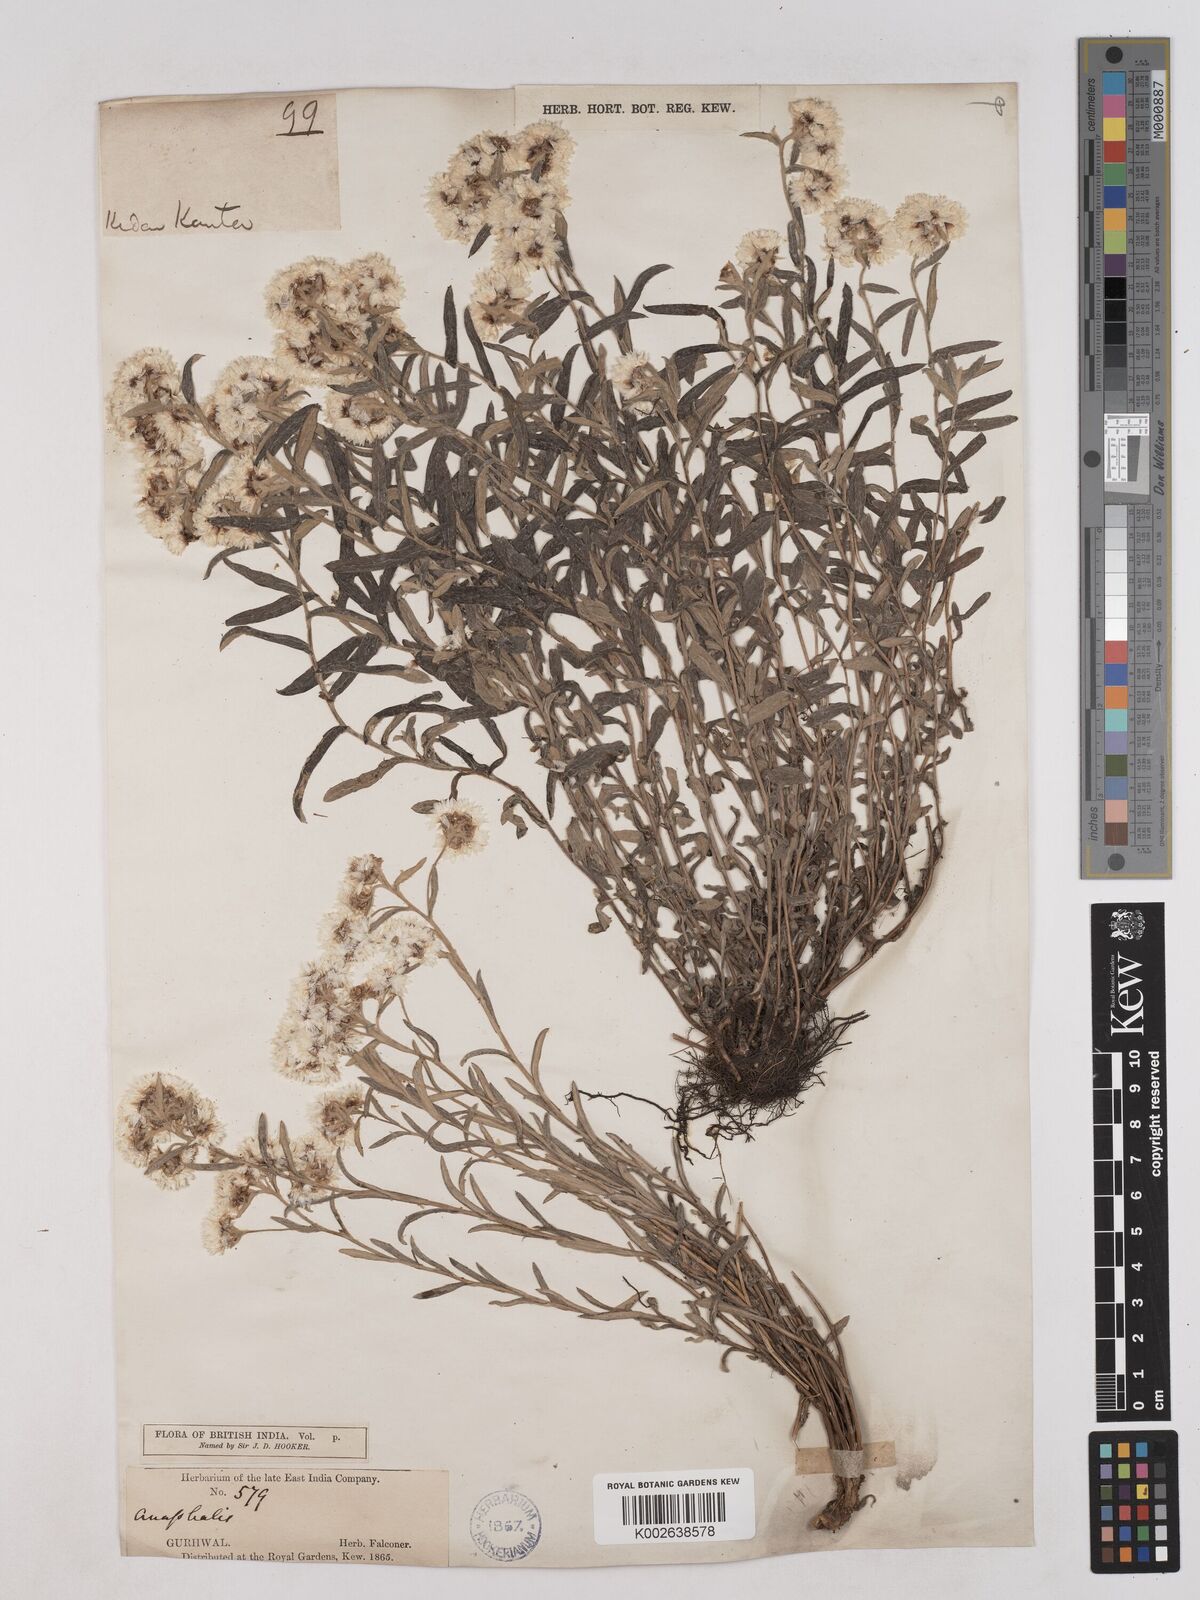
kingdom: Plantae
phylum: Tracheophyta
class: Magnoliopsida
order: Asterales
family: Asteraceae
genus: Anaphalis
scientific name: Anaphalis royleana
